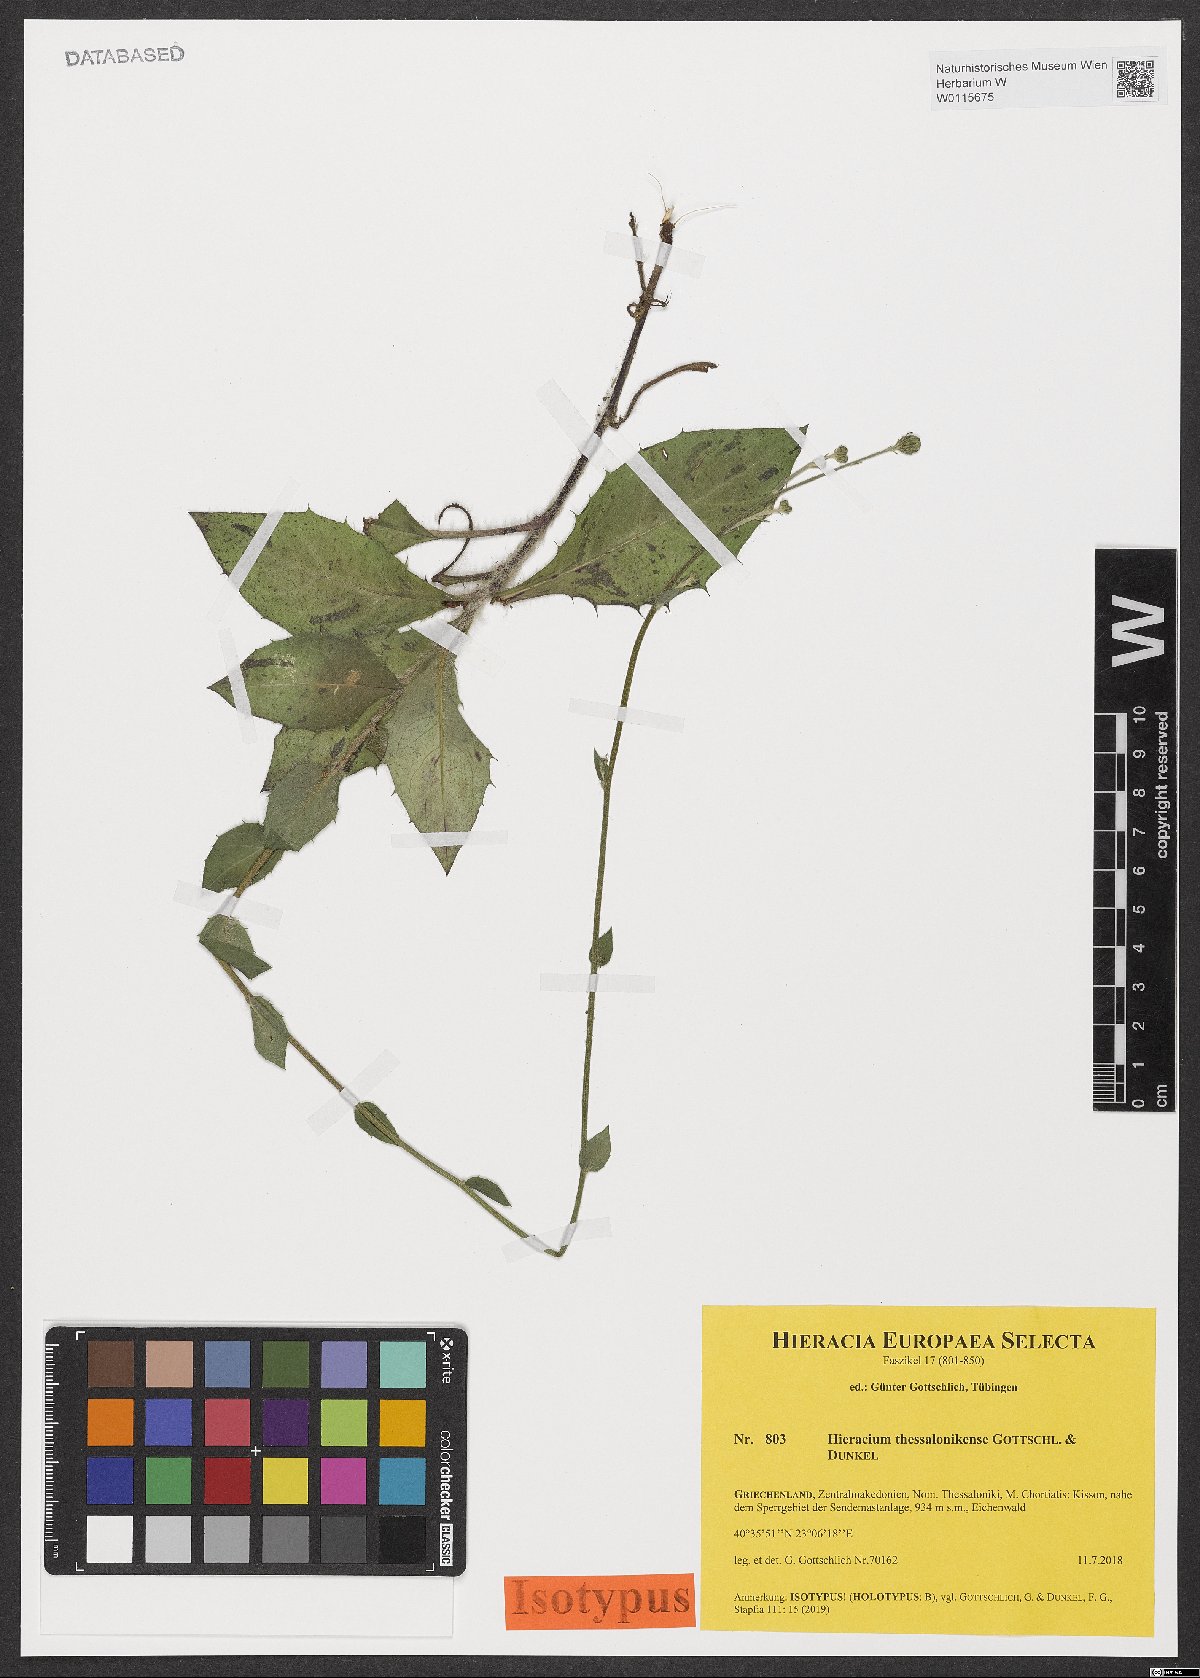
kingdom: Plantae
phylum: Tracheophyta
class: Magnoliopsida
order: Asterales
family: Asteraceae
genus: Hieracium
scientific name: Hieracium thessalonikense
